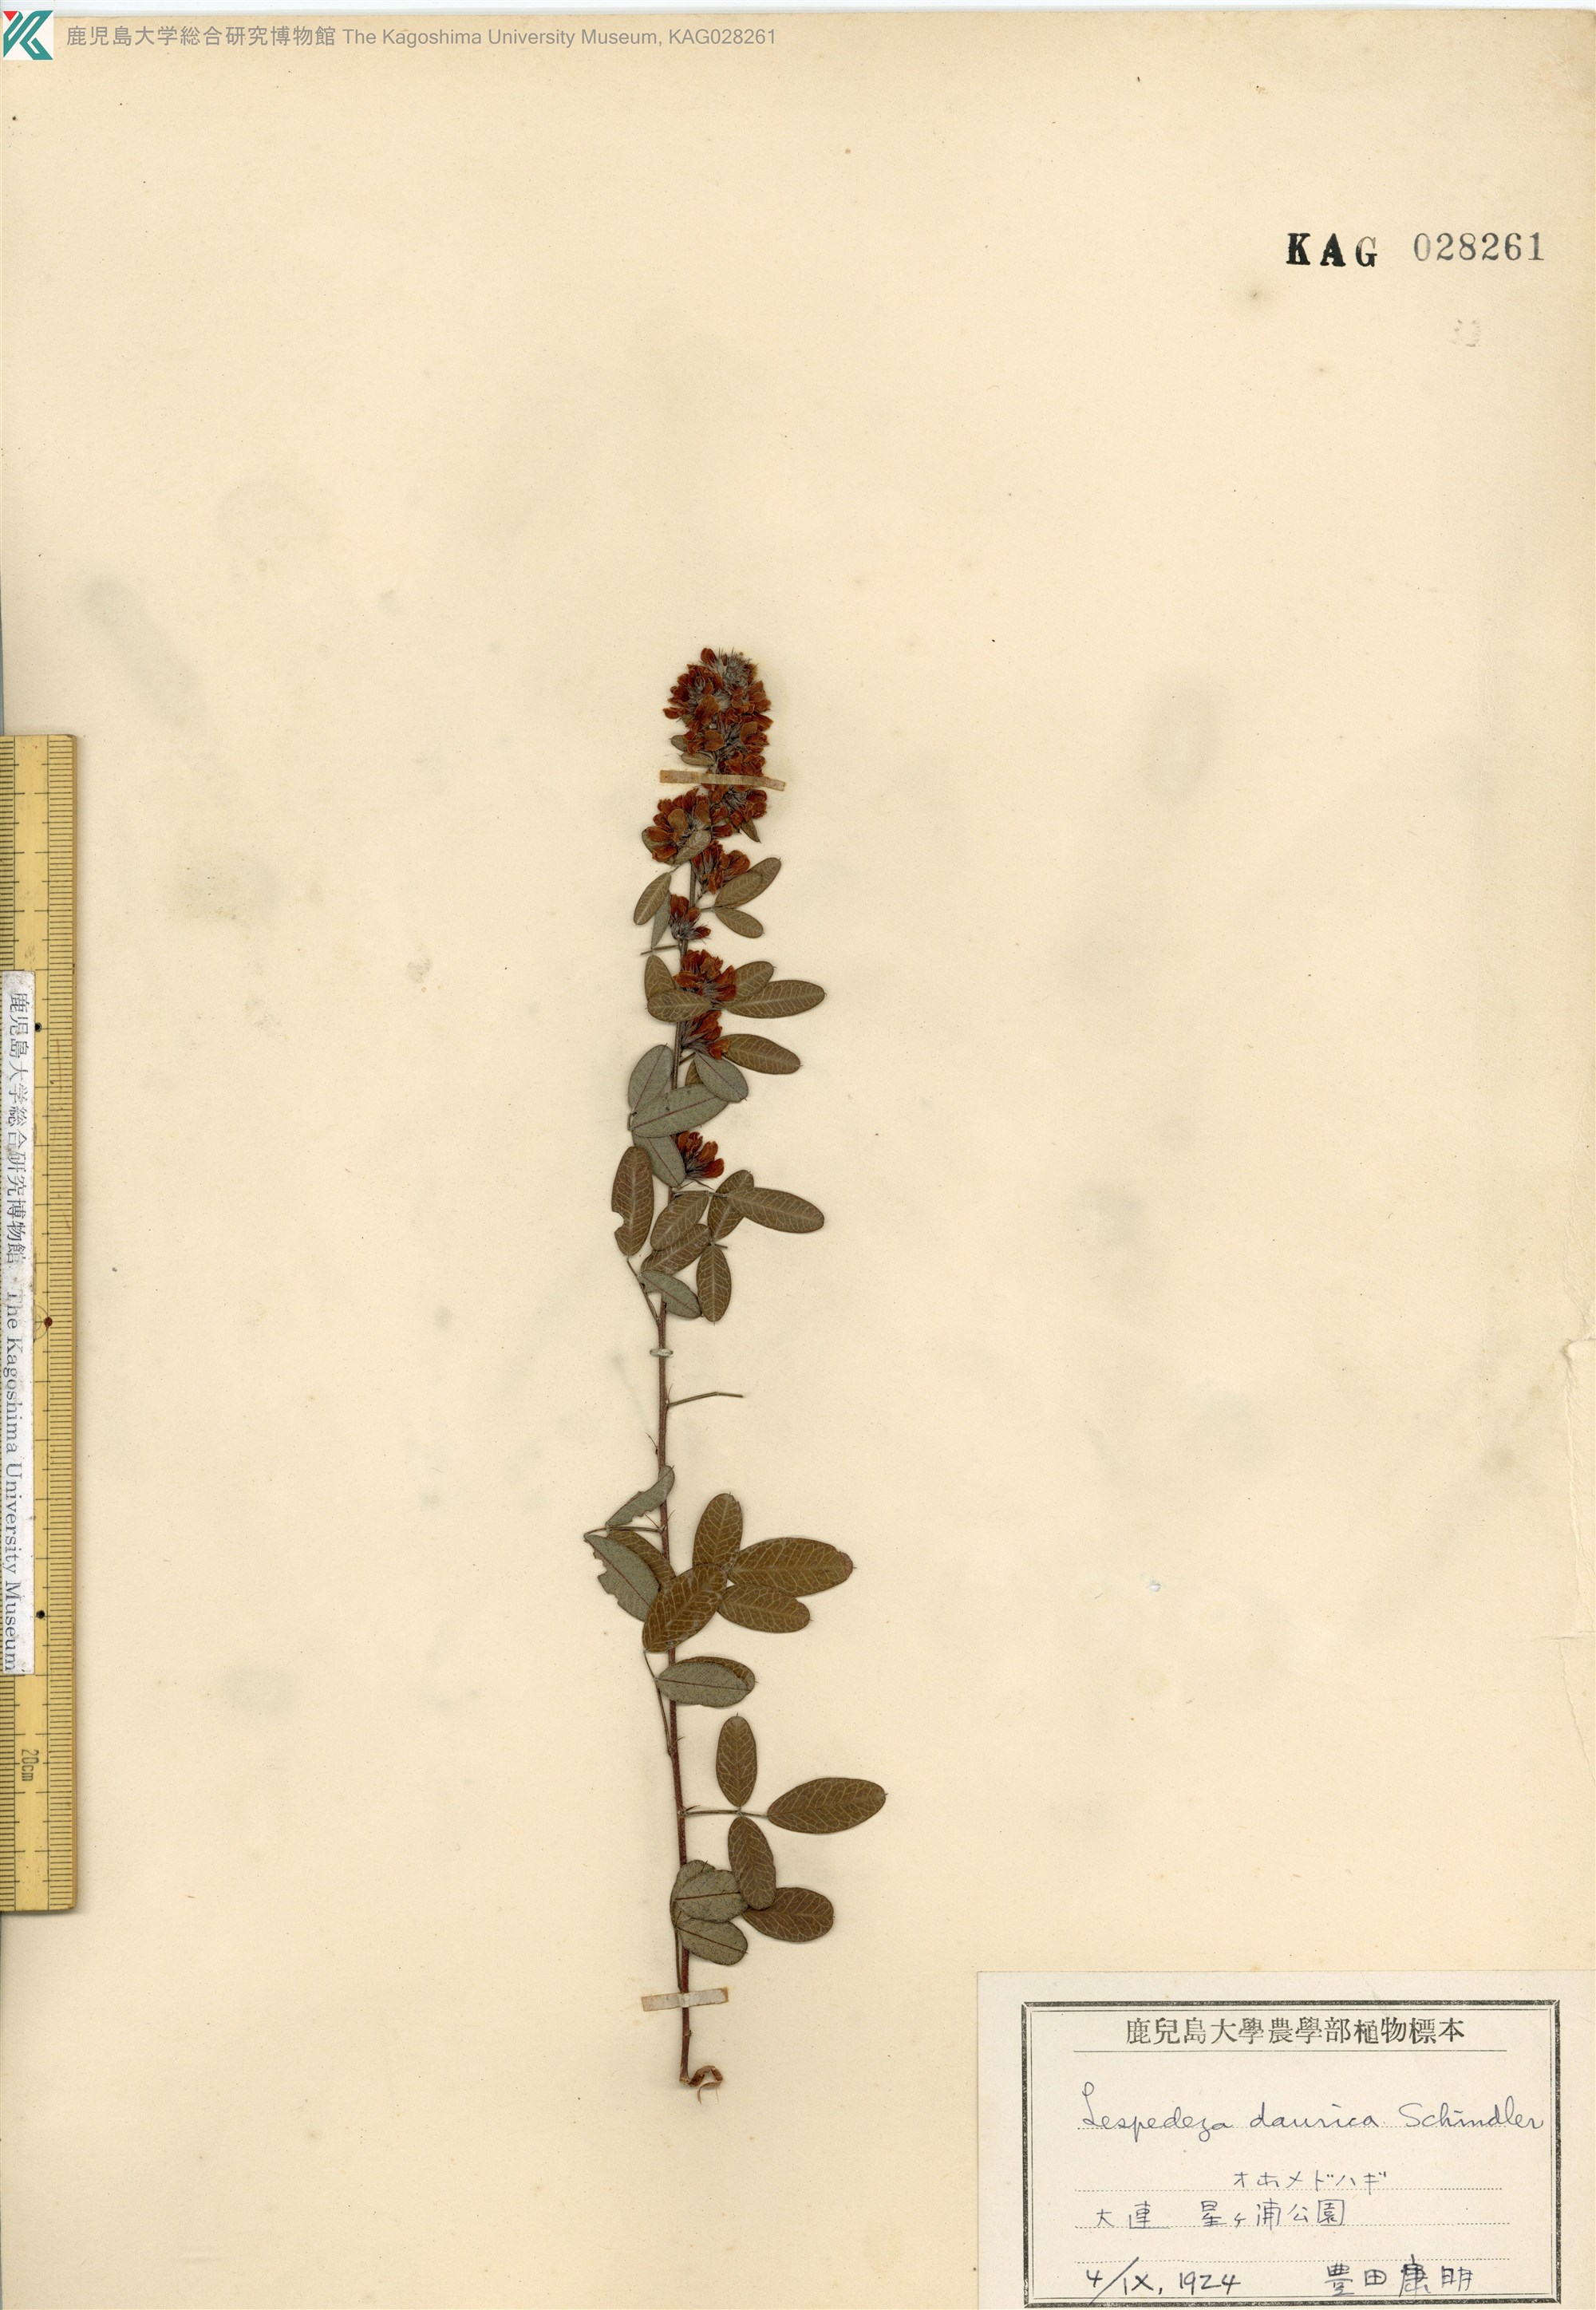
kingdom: Plantae
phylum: Tracheophyta
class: Magnoliopsida
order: Fabales
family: Fabaceae
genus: Lespedeza
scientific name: Lespedeza daurica
